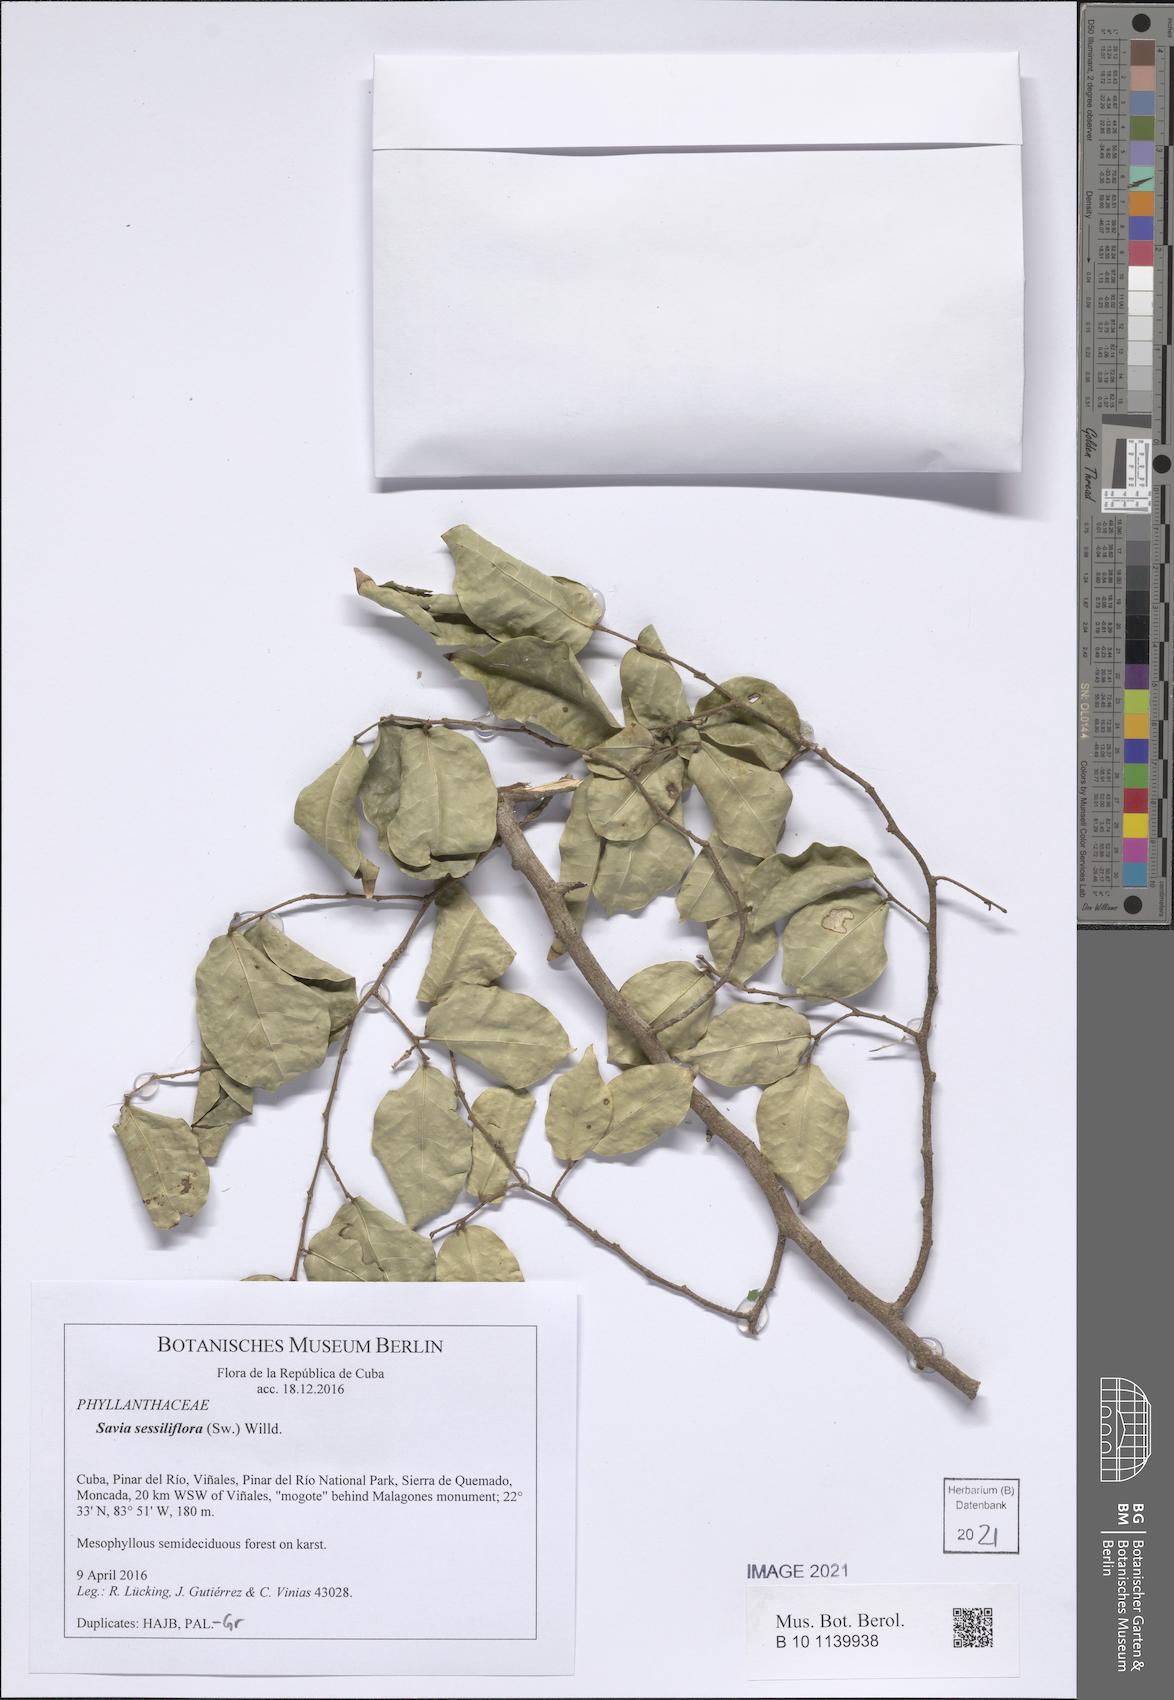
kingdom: Plantae
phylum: Tracheophyta
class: Magnoliopsida
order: Malpighiales
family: Phyllanthaceae
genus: Savia
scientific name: Savia sessiliflora
